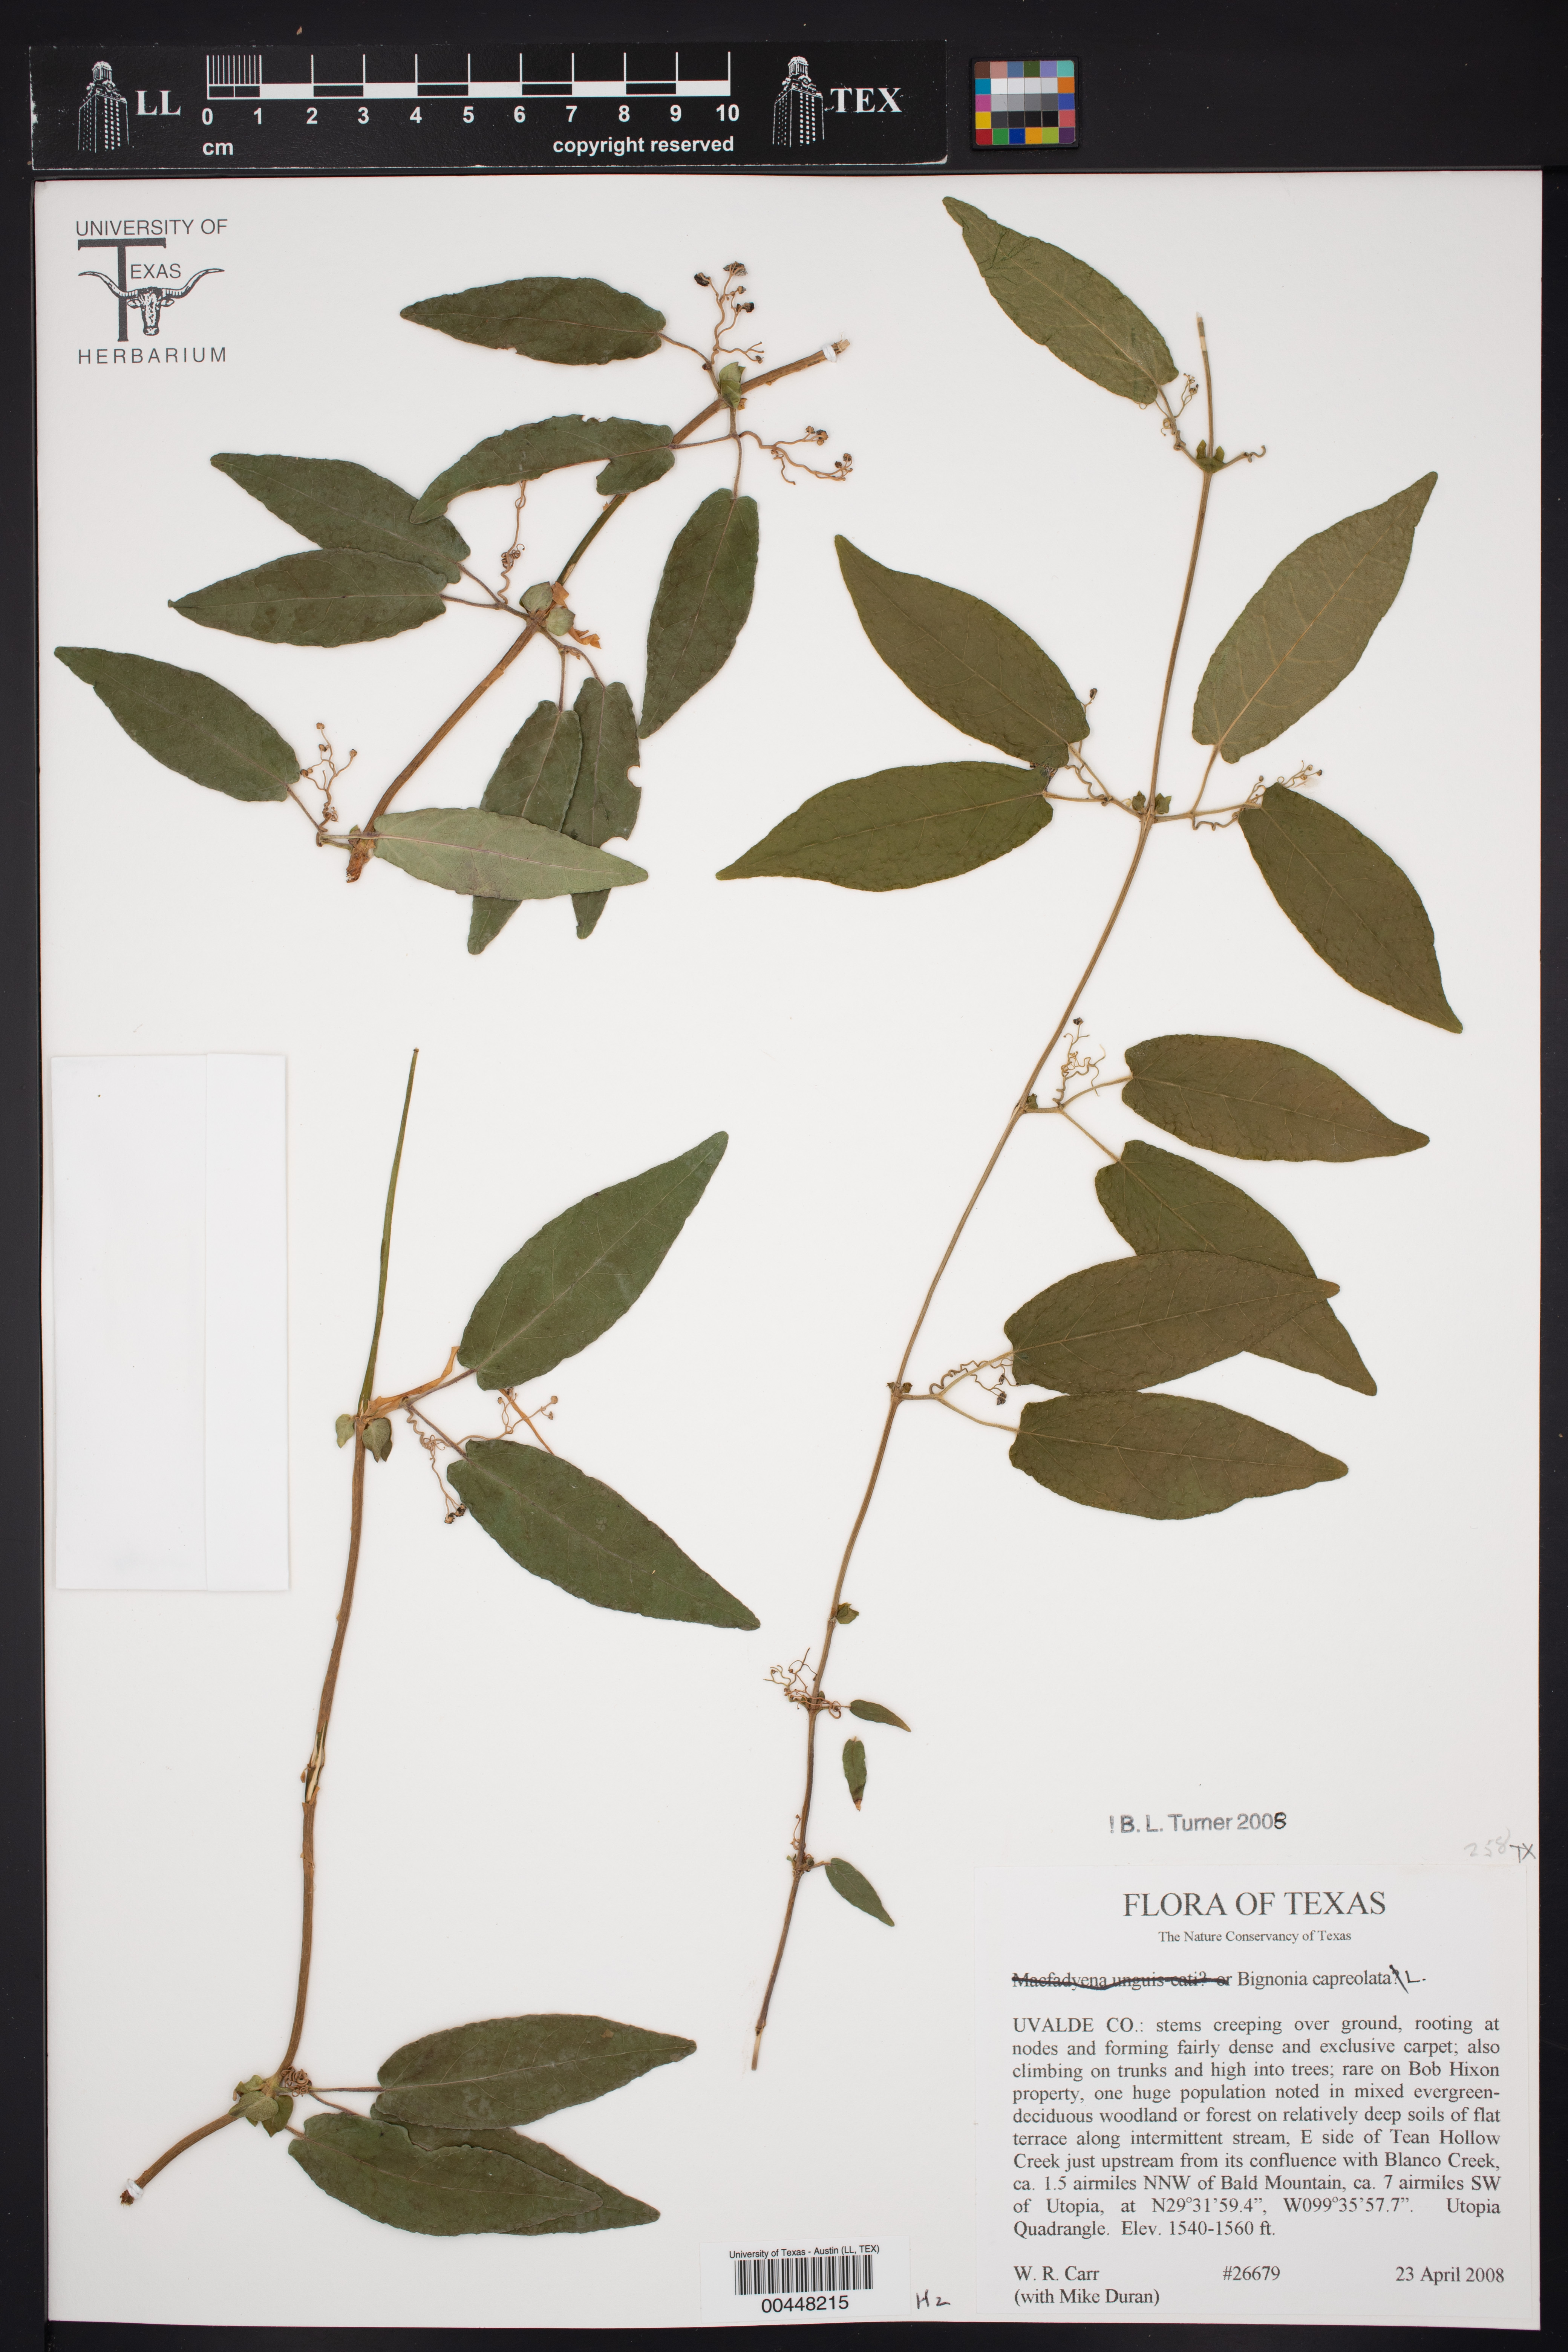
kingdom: Plantae
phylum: Tracheophyta
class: Magnoliopsida
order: Lamiales
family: Bignoniaceae
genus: Bignonia
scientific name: Bignonia capreolata
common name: Crossvine
